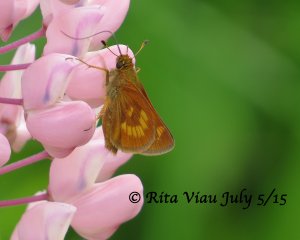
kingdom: Animalia
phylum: Arthropoda
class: Insecta
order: Lepidoptera
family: Hesperiidae
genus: Polites
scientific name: Polites
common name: Long Dash Skipper
